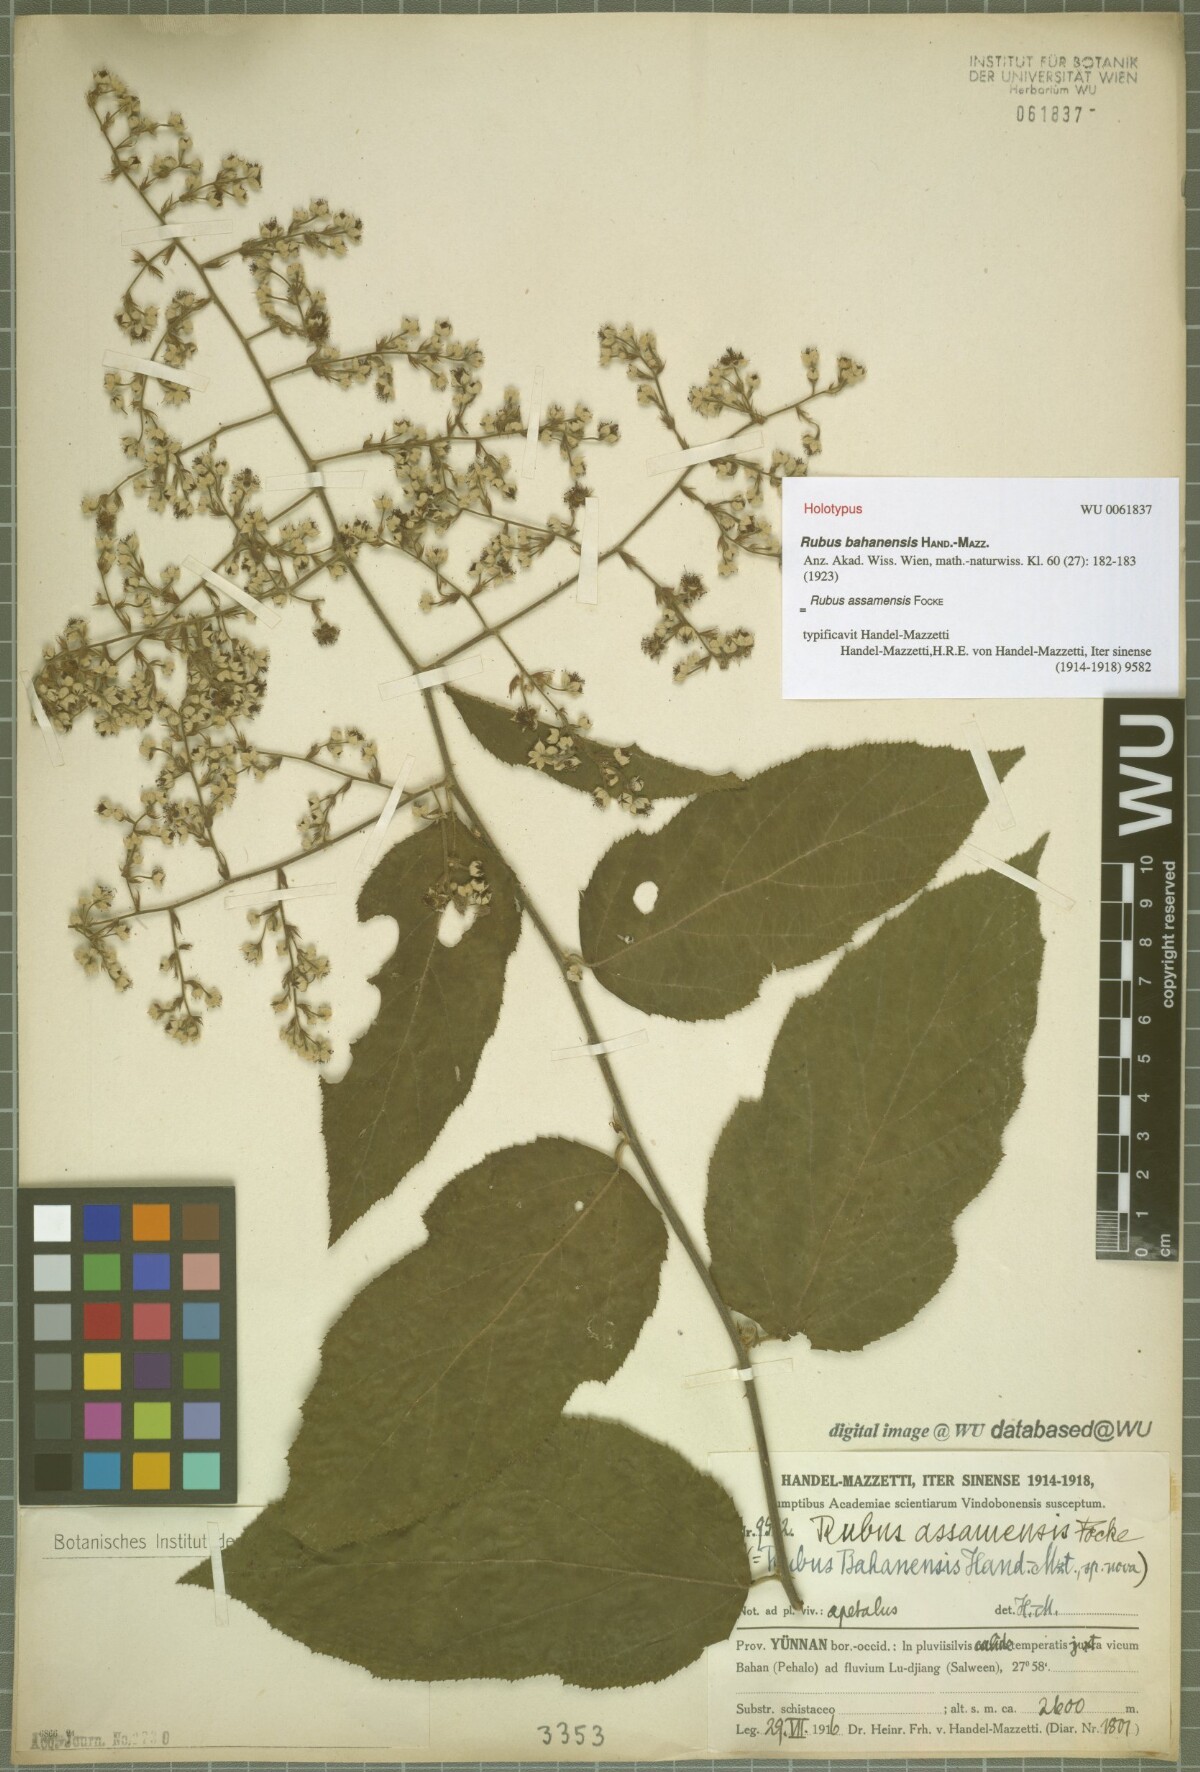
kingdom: Plantae
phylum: Tracheophyta
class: Magnoliopsida
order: Rosales
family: Rosaceae
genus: Rubus
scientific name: Rubus assamensis
